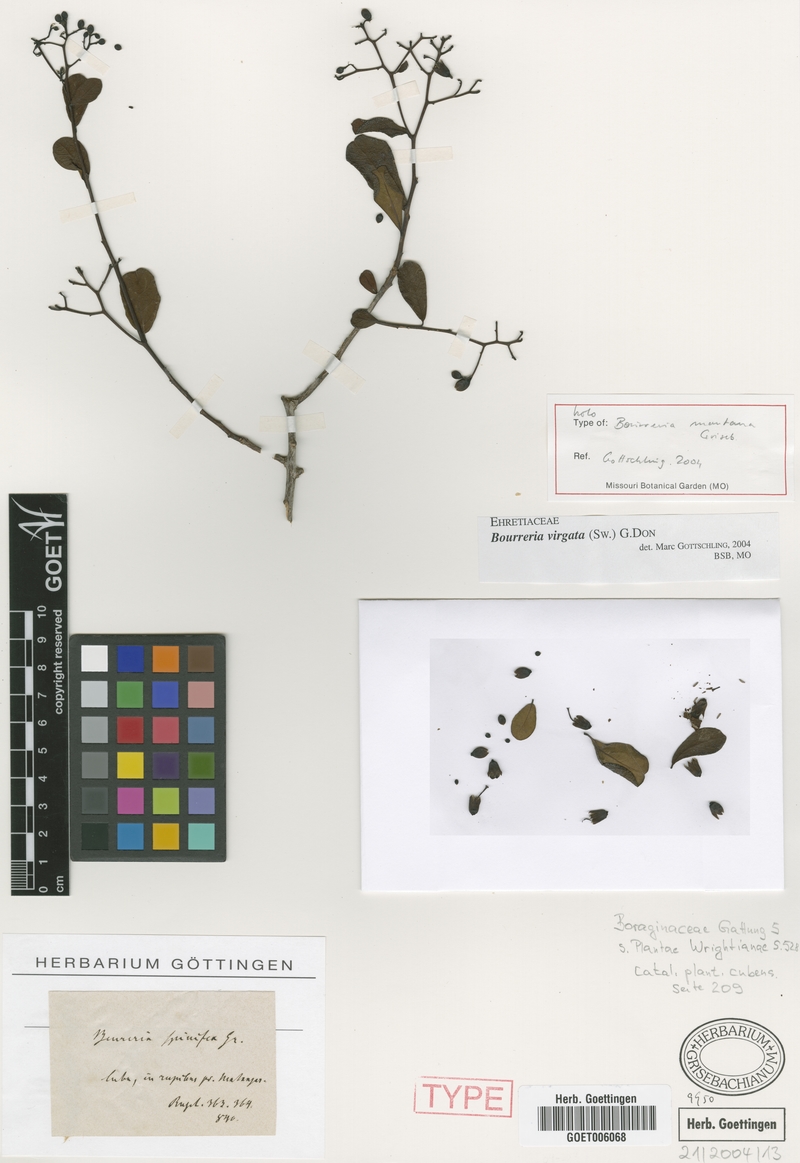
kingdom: Plantae
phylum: Tracheophyta
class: Magnoliopsida
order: Boraginales
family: Ehretiaceae
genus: Bourreria
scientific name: Bourreria virgata
